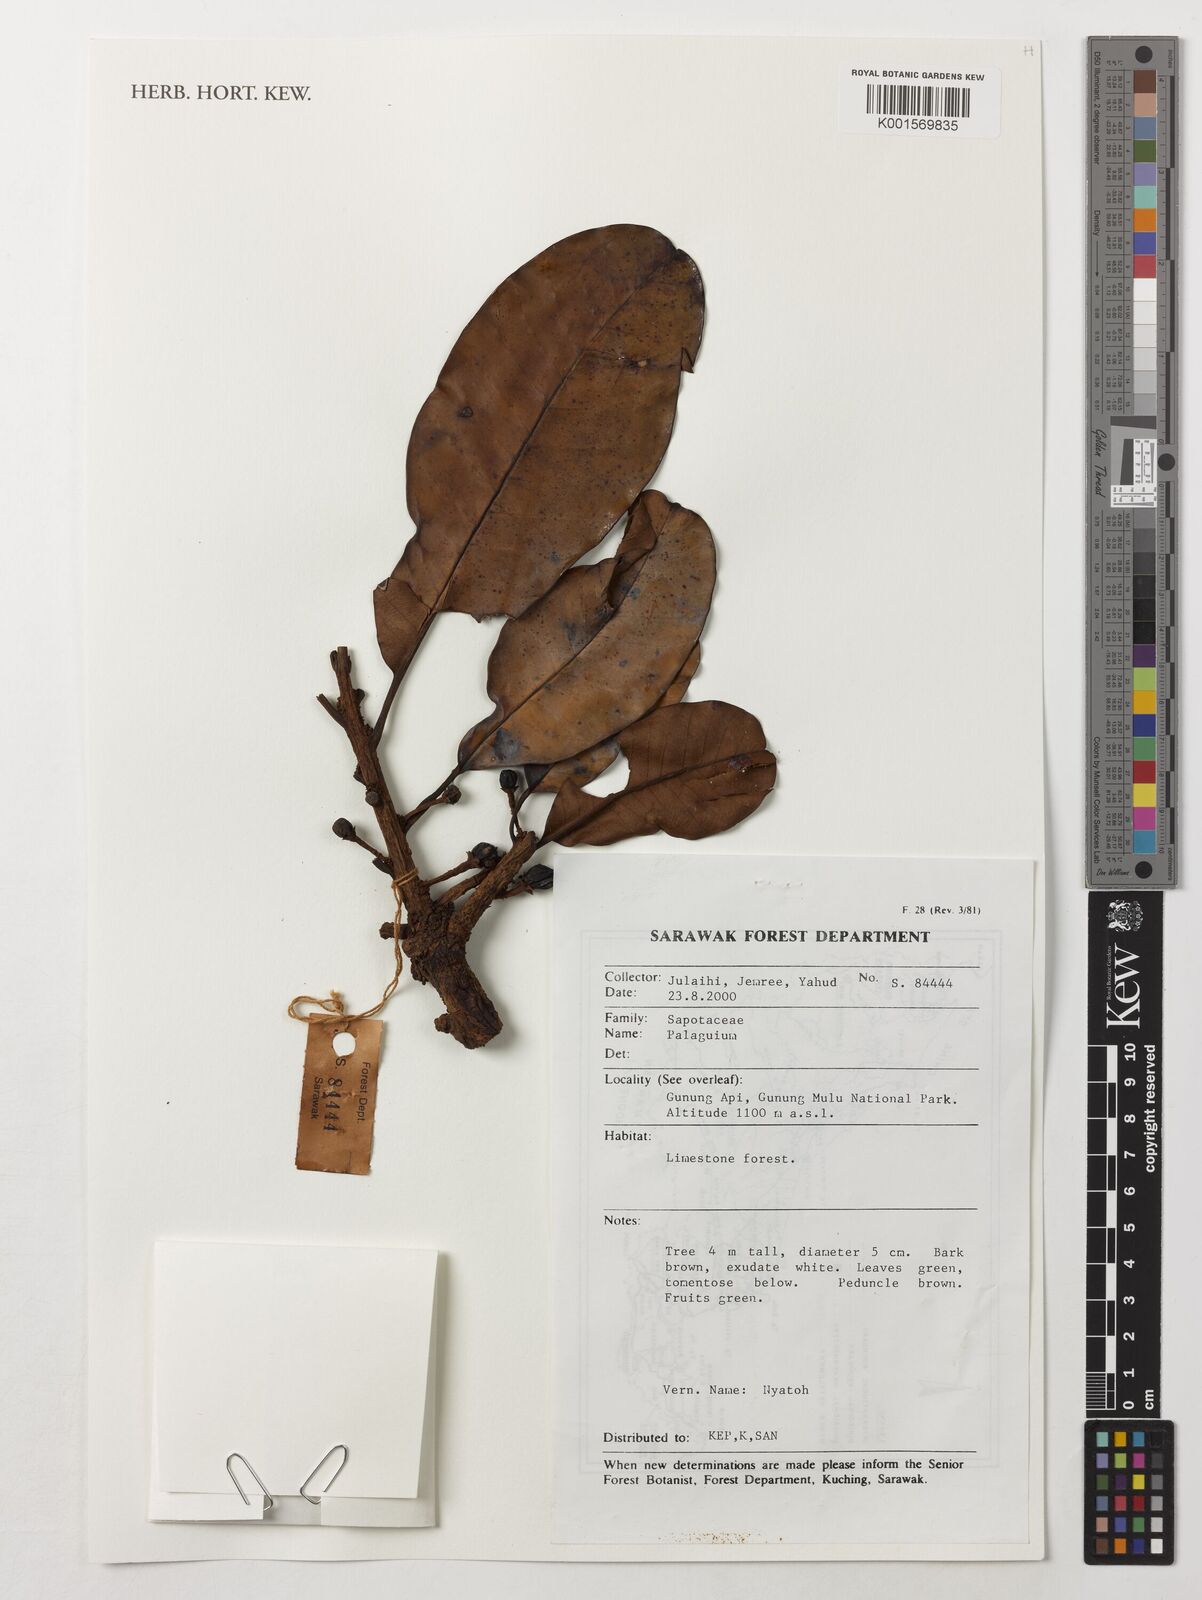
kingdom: Plantae
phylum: Tracheophyta
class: Magnoliopsida
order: Ericales
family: Sapotaceae
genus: Palaquium
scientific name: Palaquium
